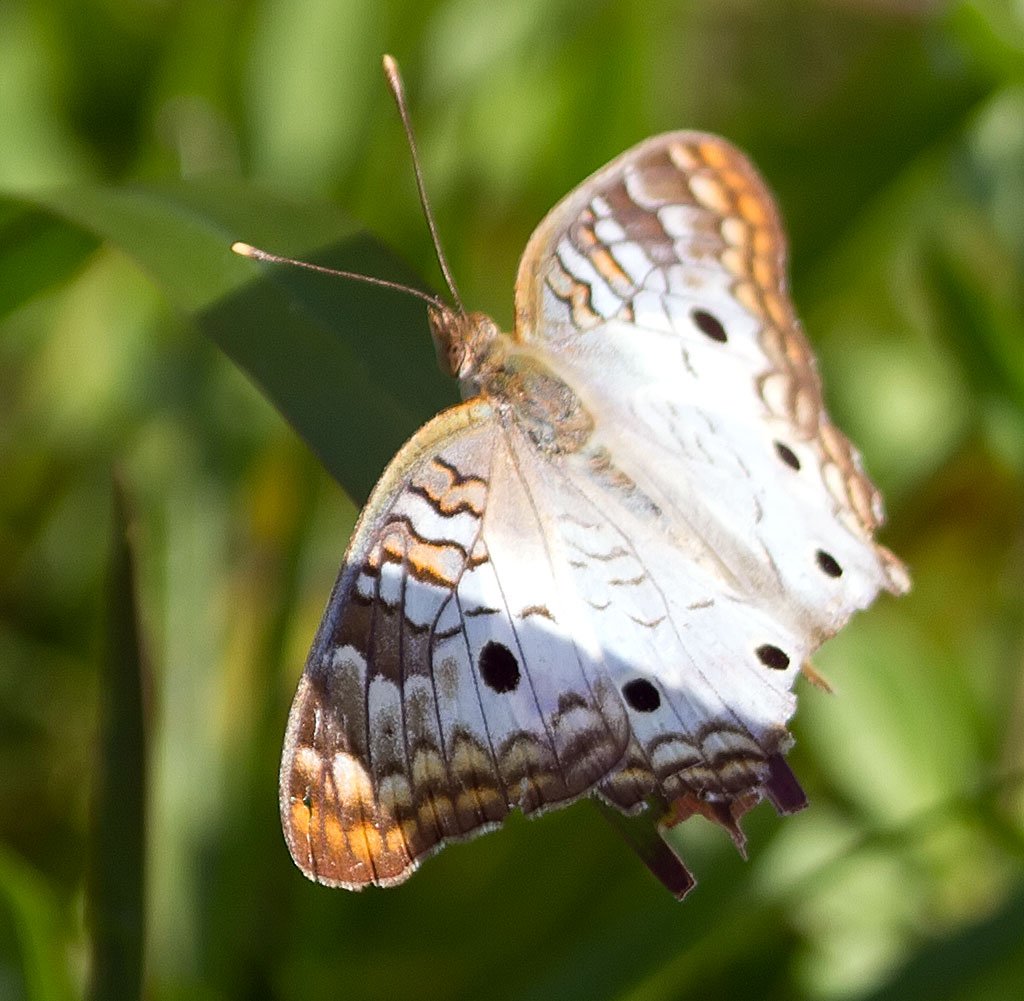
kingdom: Animalia
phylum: Arthropoda
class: Insecta
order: Lepidoptera
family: Nymphalidae
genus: Anartia
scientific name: Anartia jatrophae
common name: White Peacock
